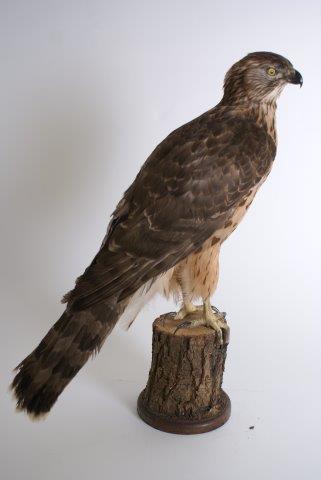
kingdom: Animalia
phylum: Chordata
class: Aves
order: Accipitriformes
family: Accipitridae
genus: Accipiter
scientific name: Accipiter gentilis
